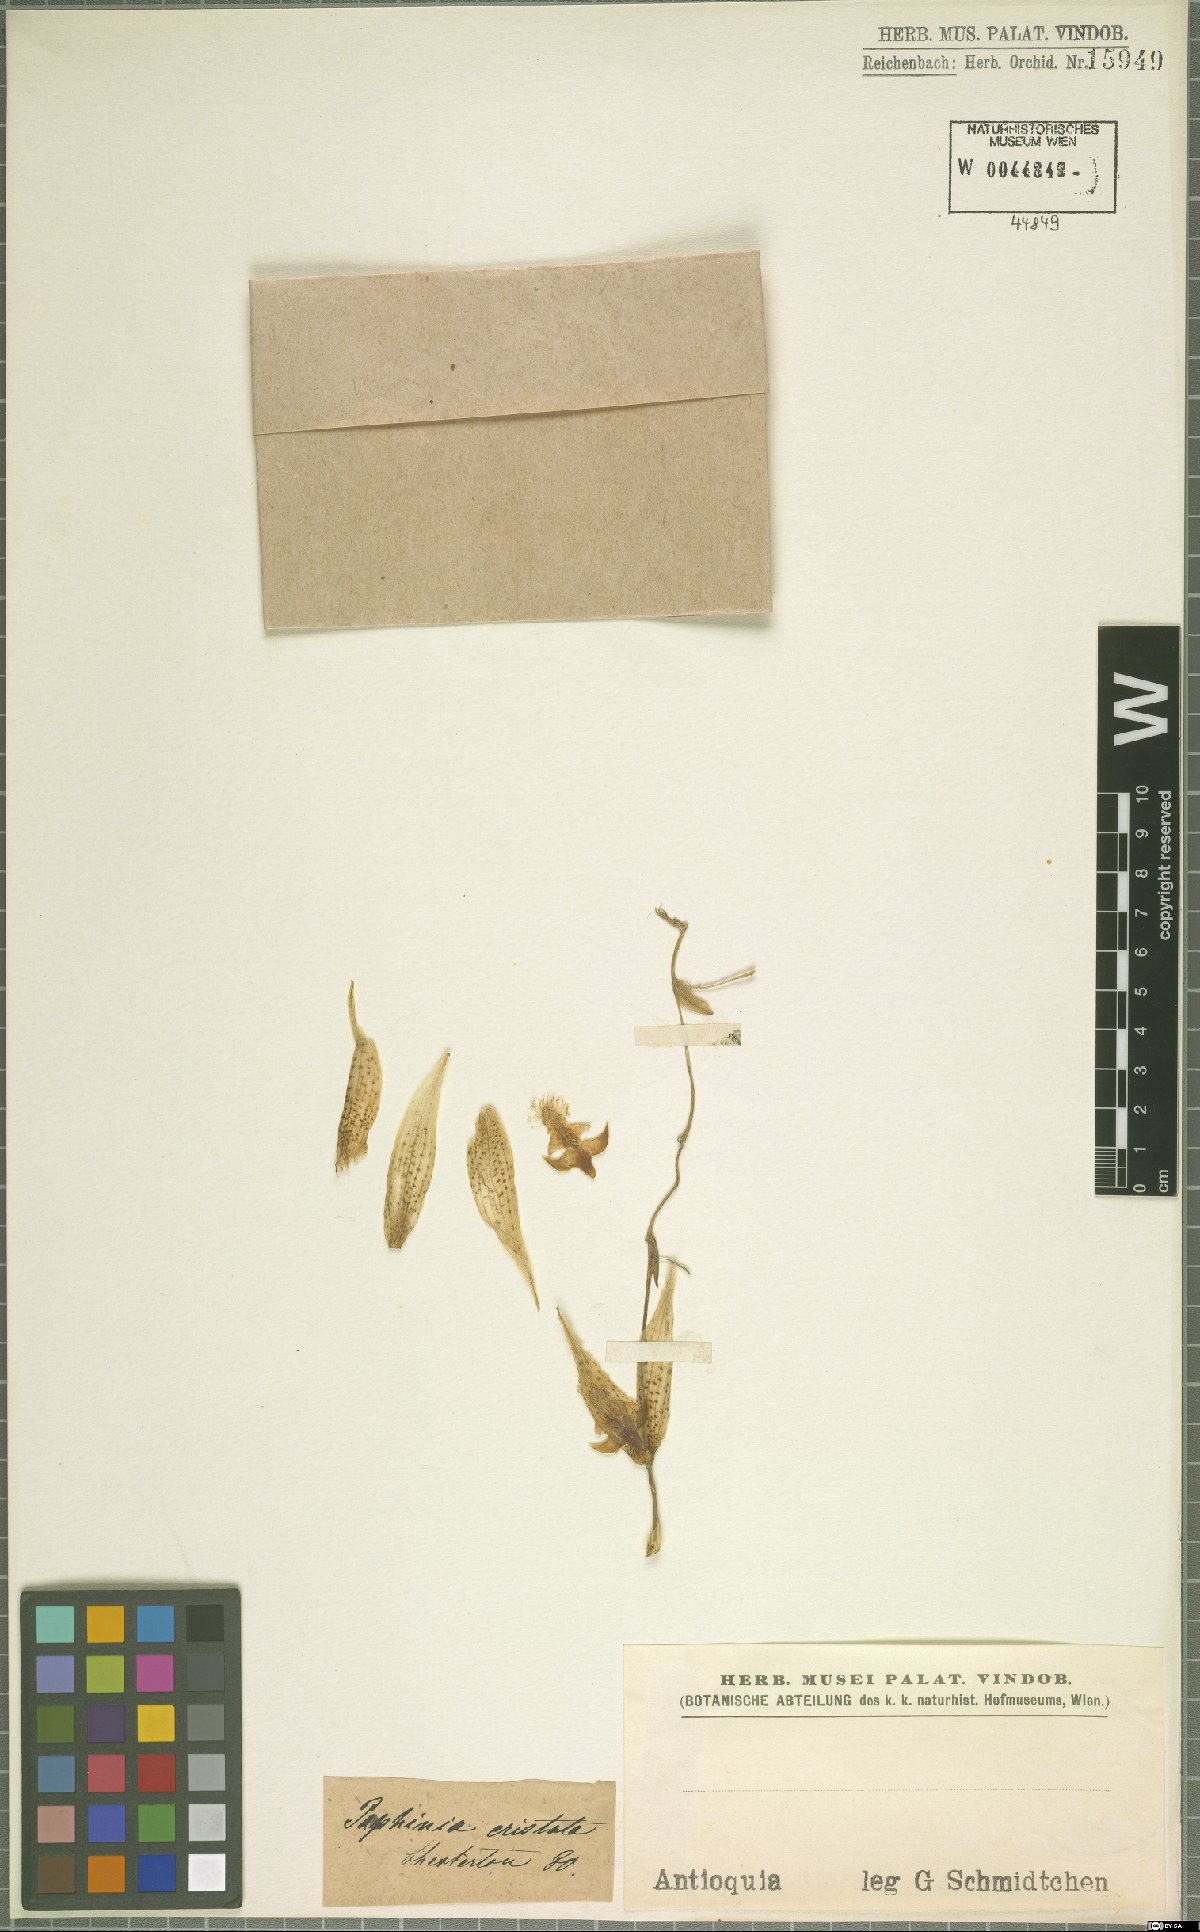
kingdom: Plantae
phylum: Tracheophyta
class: Liliopsida
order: Asparagales
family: Orchidaceae
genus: Paphinia
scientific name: Paphinia cristata
